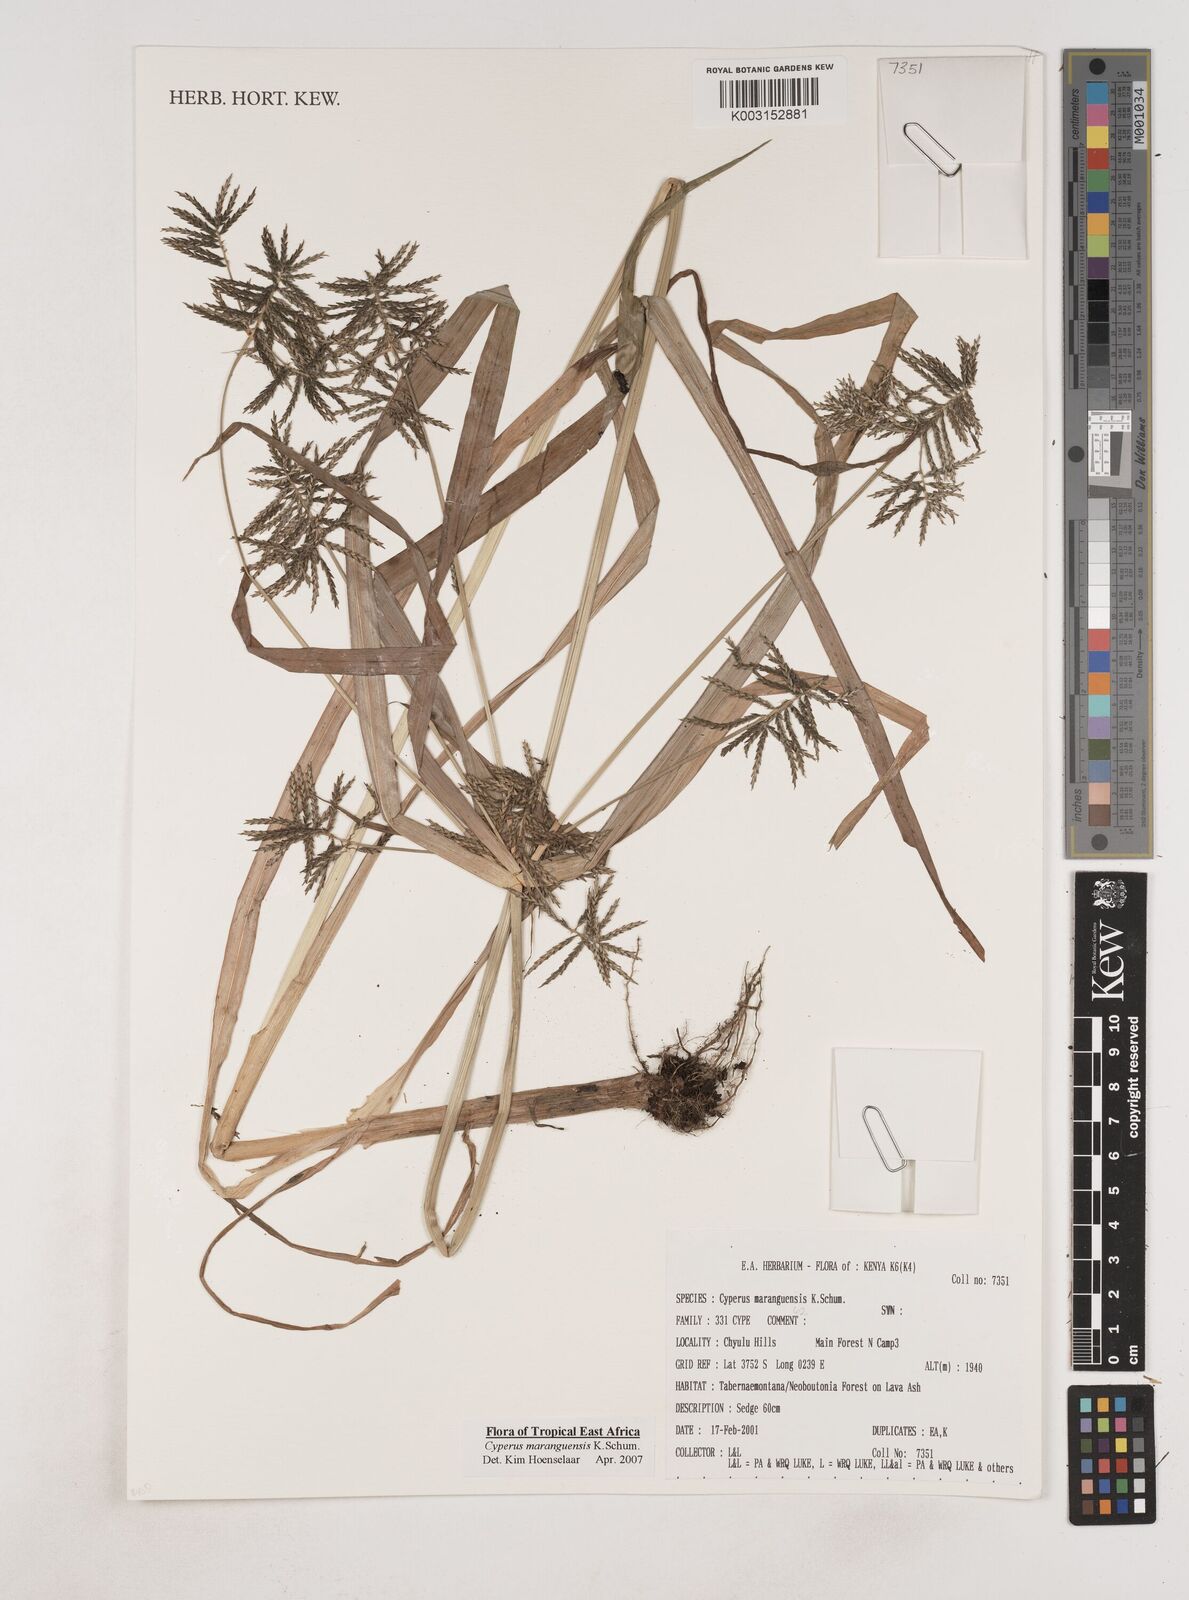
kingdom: Plantae
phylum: Tracheophyta
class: Liliopsida
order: Poales
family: Cyperaceae
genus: Cyperus
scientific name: Cyperus maranguensis
